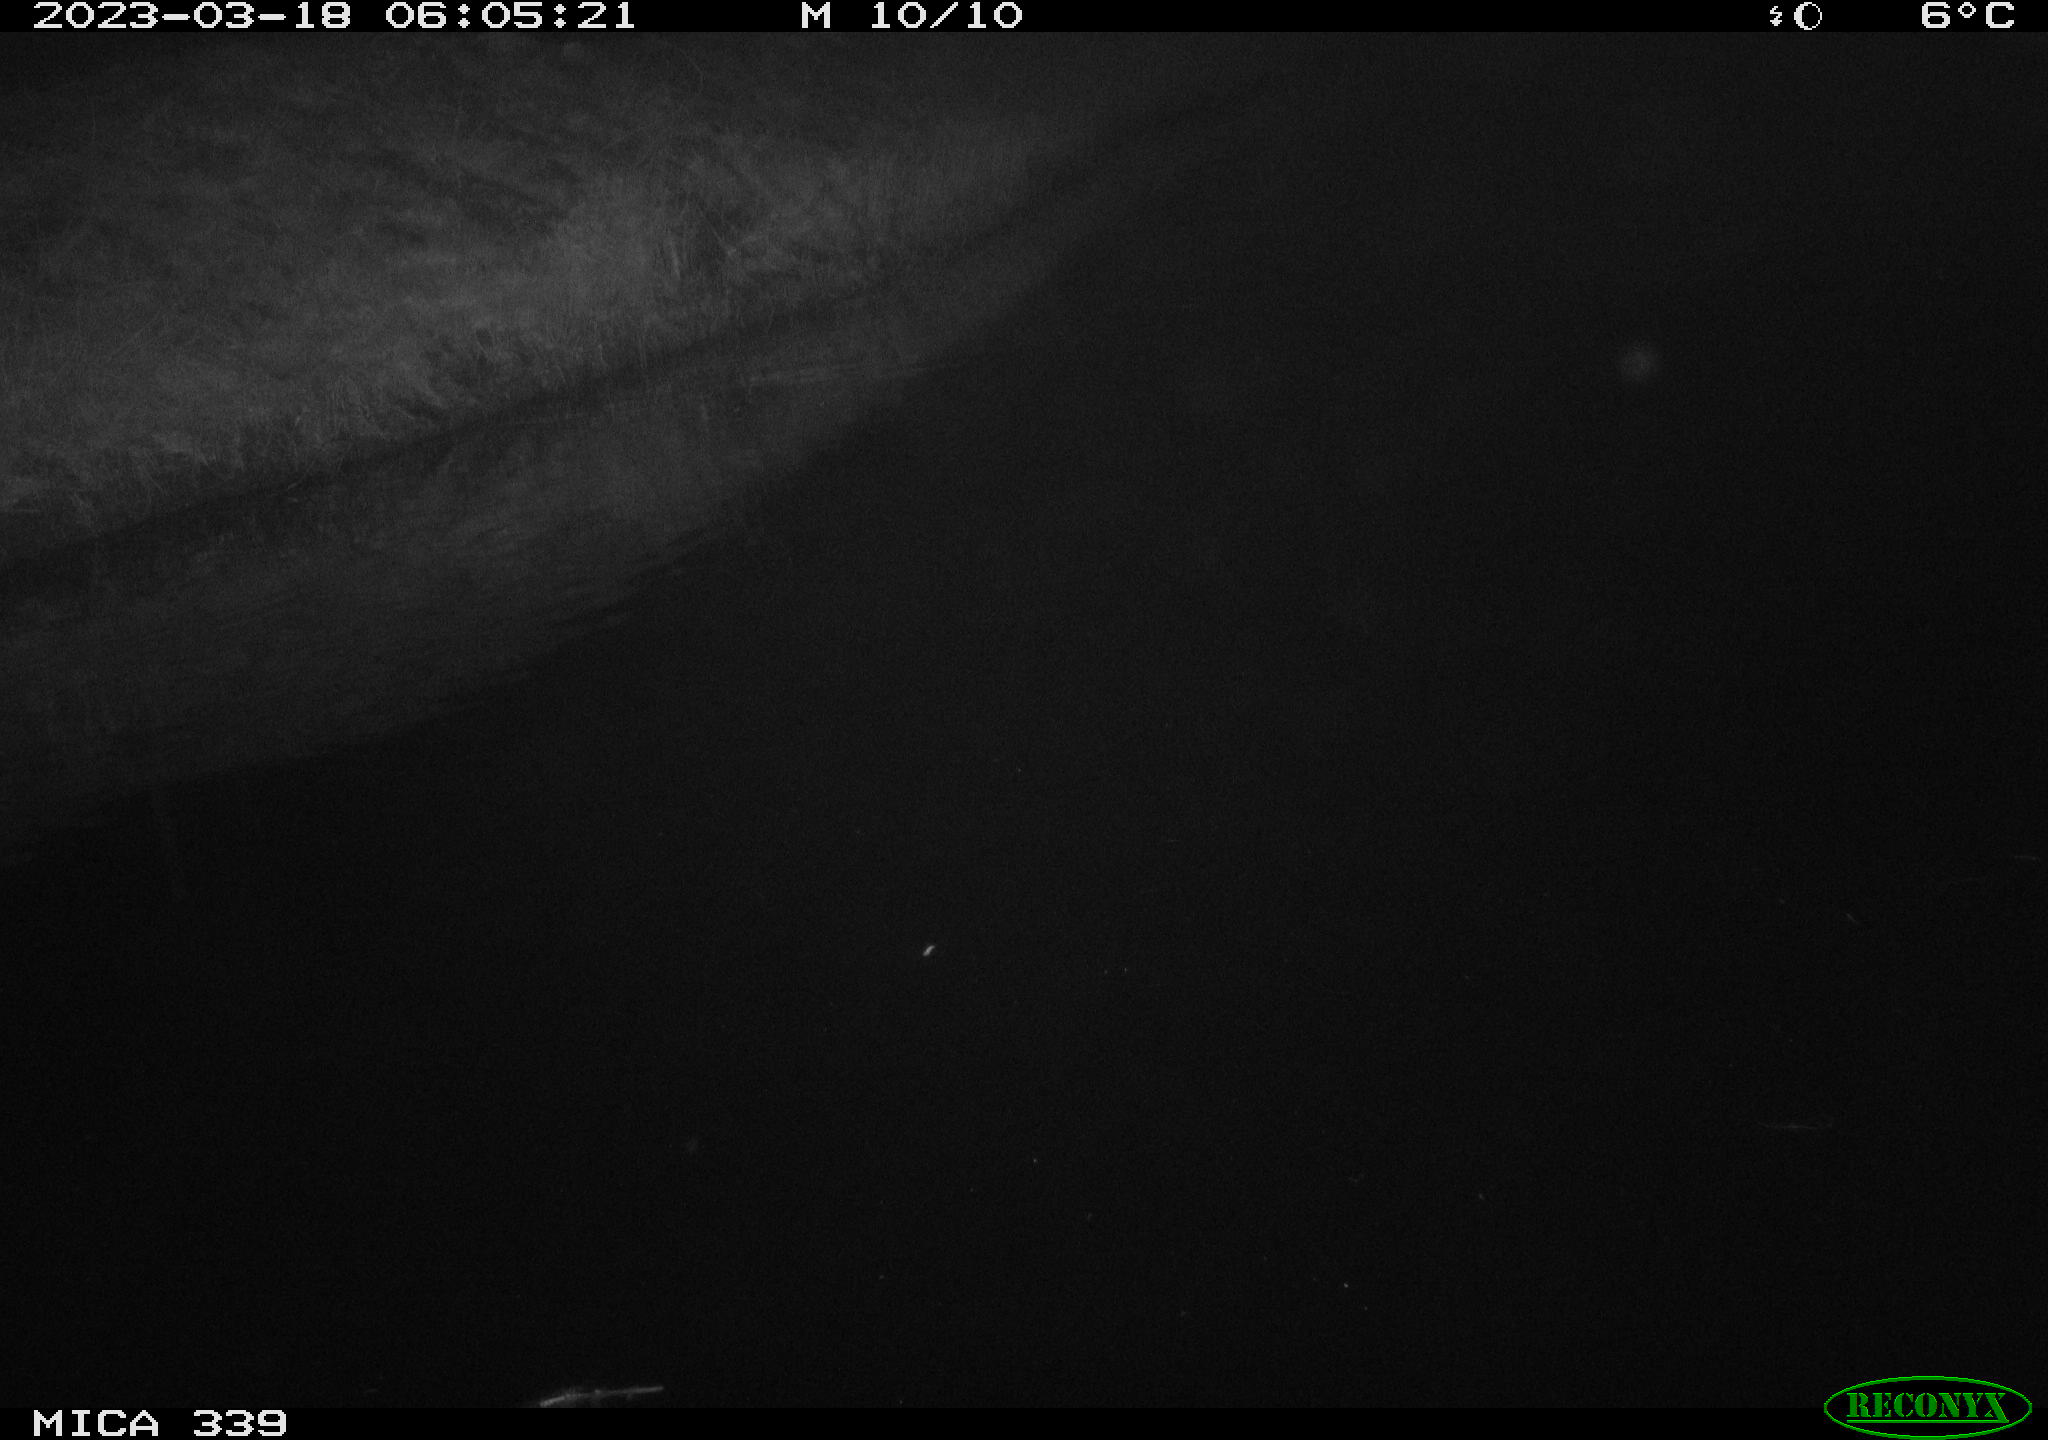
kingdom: Animalia
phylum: Chordata
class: Aves
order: Pelecaniformes
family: Ardeidae
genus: Ardea
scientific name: Ardea cinerea
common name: Grey heron
